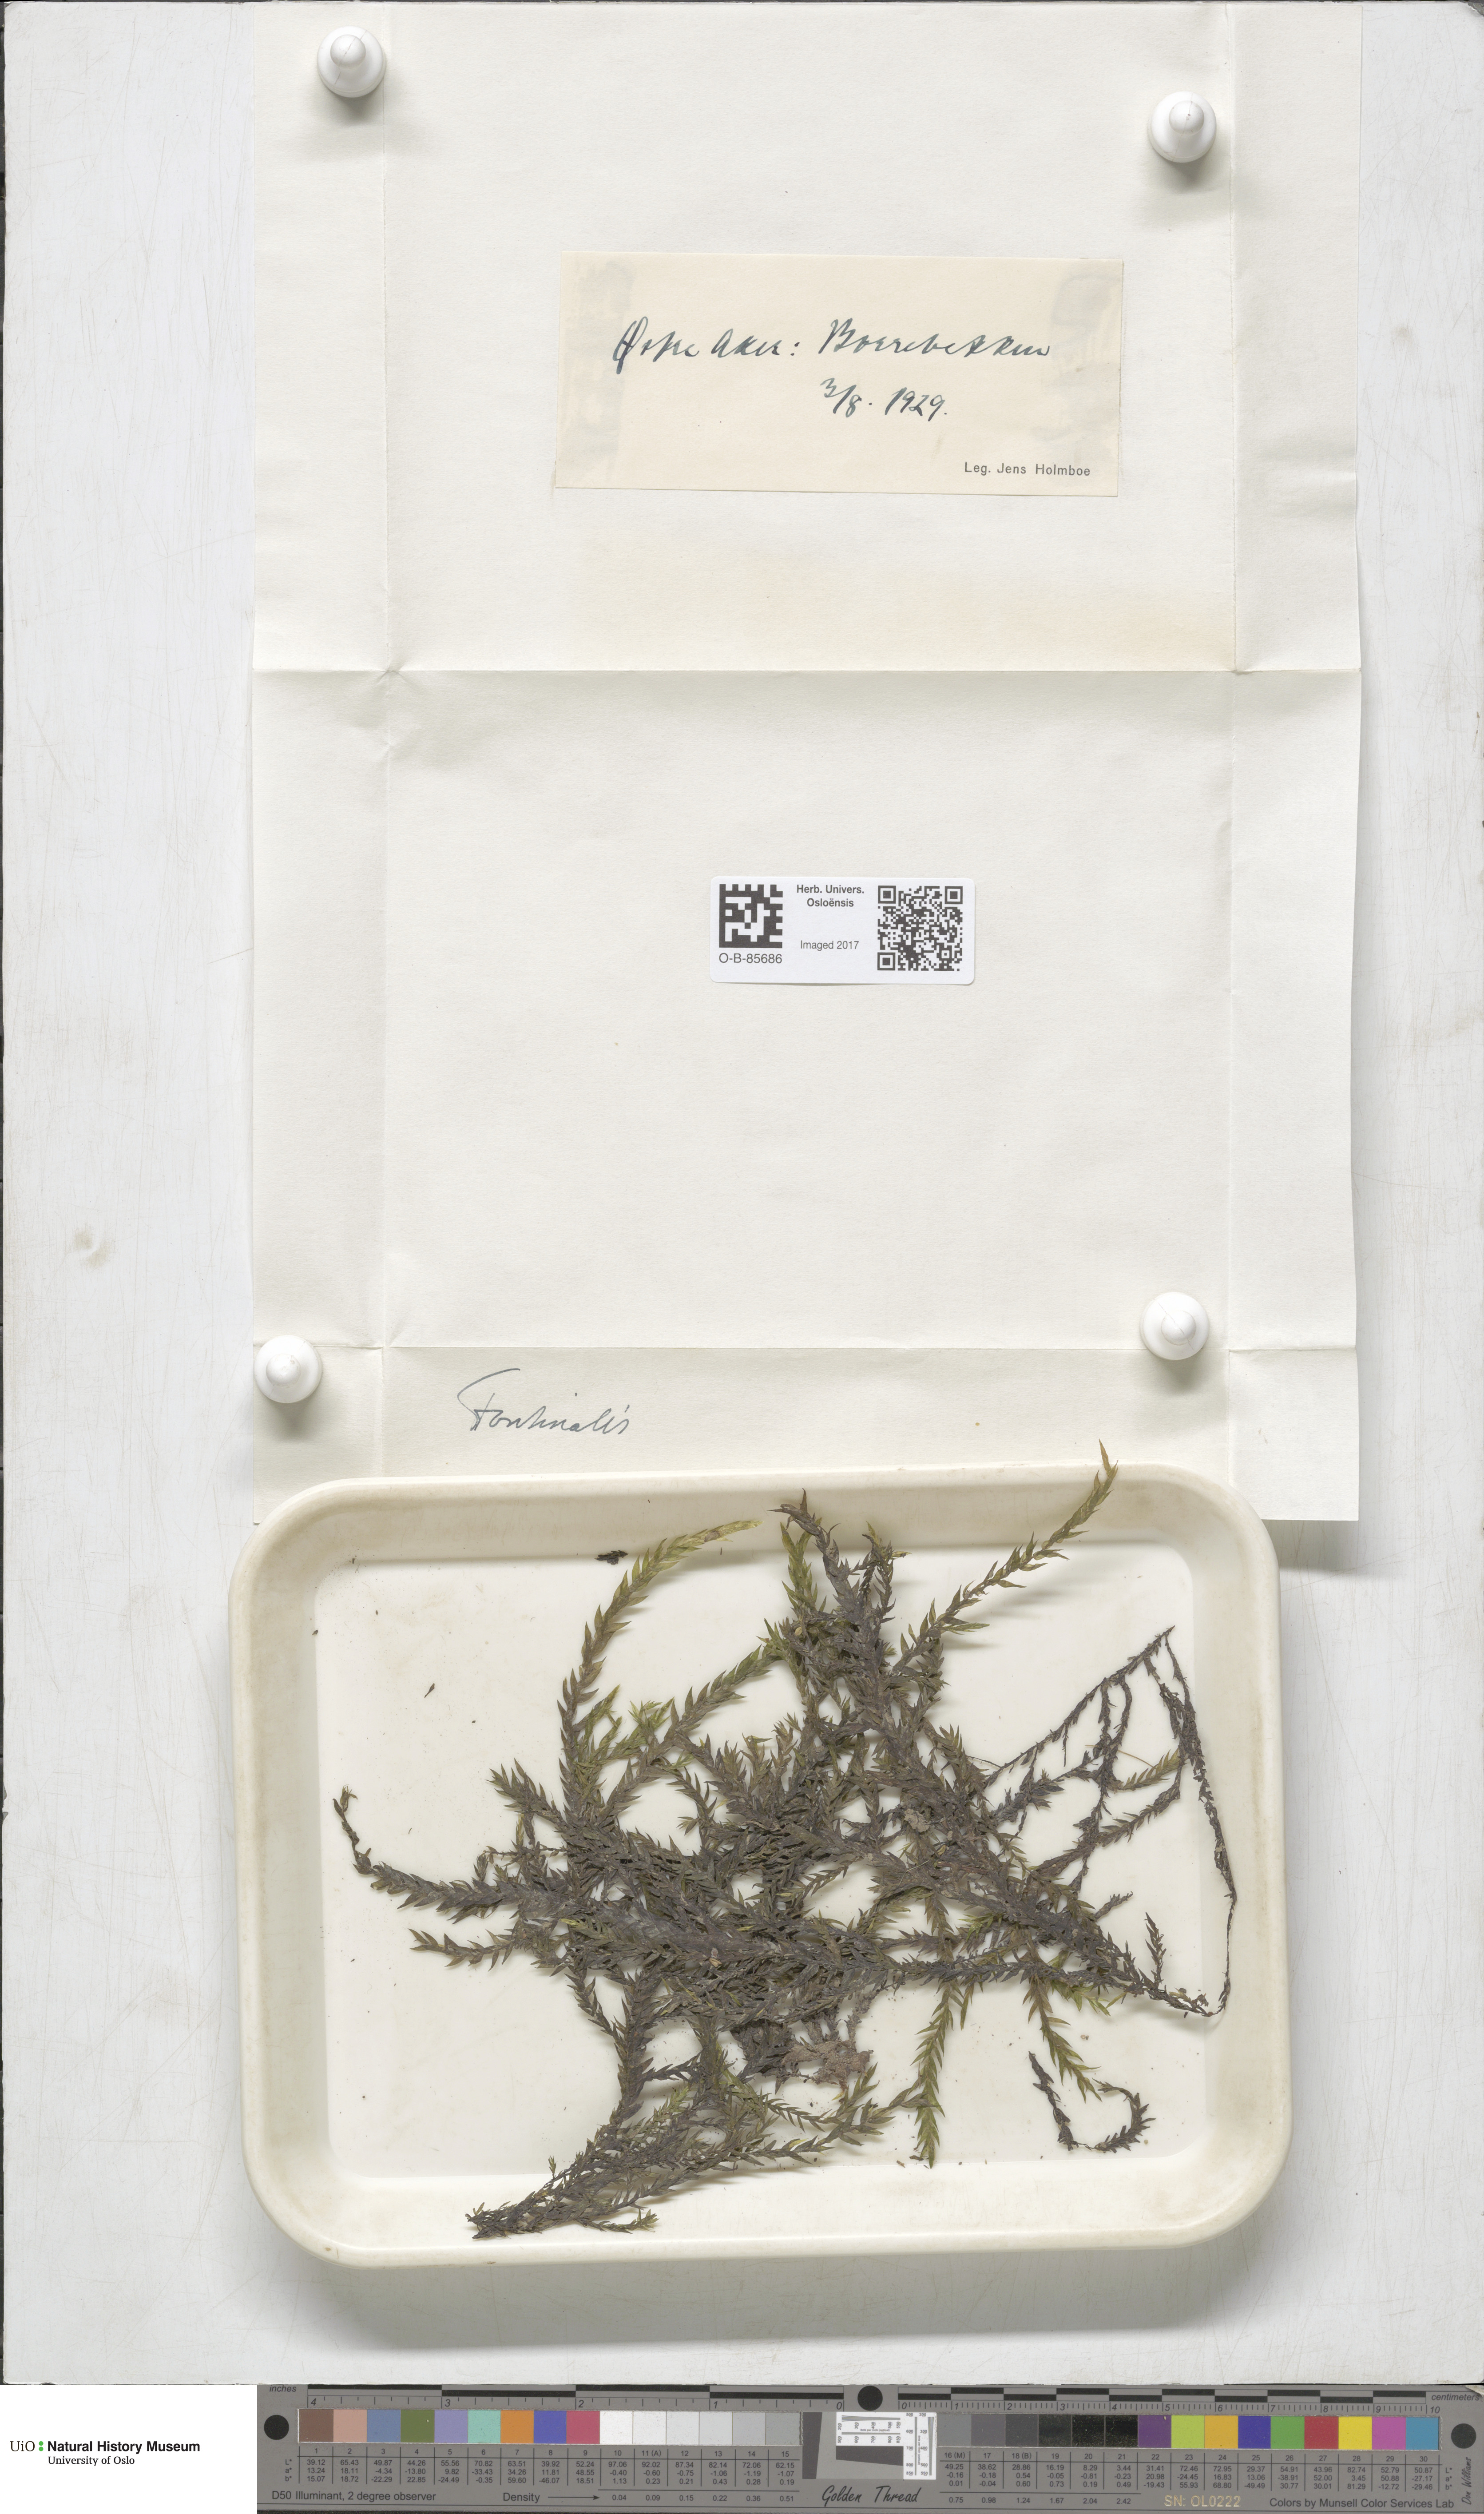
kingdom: Plantae
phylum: Bryophyta
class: Bryopsida
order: Hypnales
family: Fontinalaceae
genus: Fontinalis
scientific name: Fontinalis
